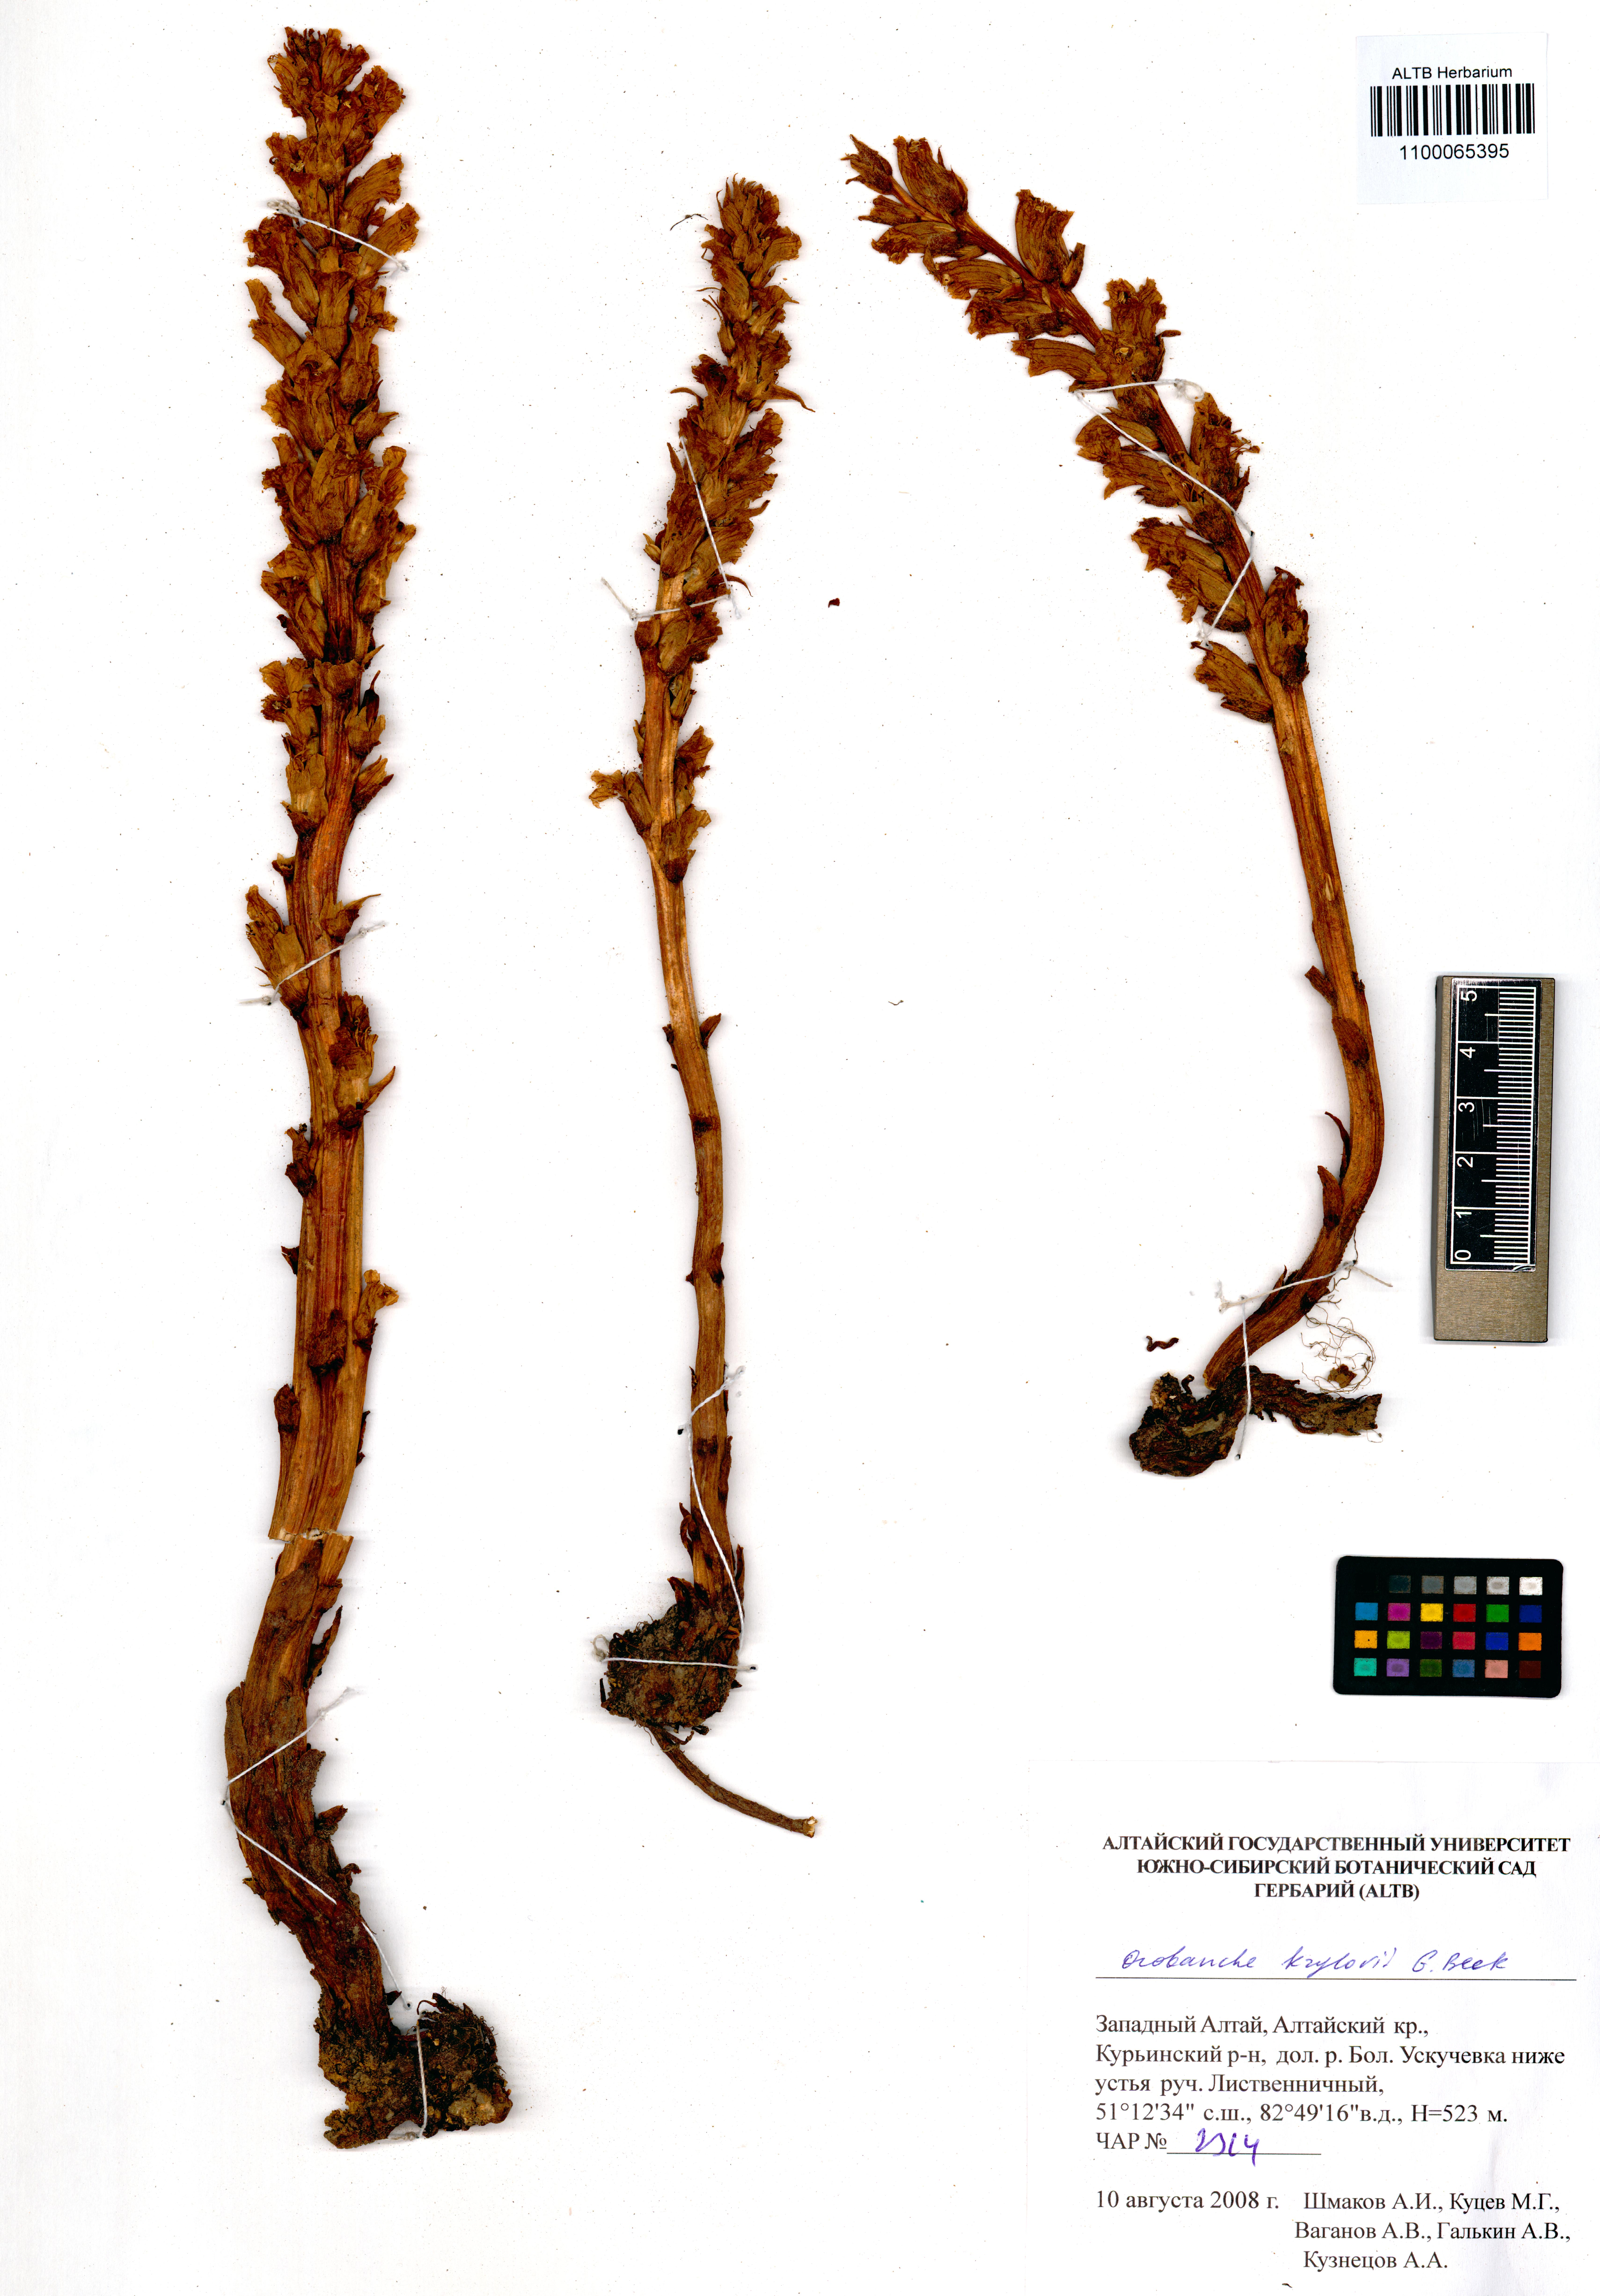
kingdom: Plantae
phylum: Tracheophyta
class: Magnoliopsida
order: Lamiales
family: Orobanchaceae
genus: Orobanche
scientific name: Orobanche krylowii
